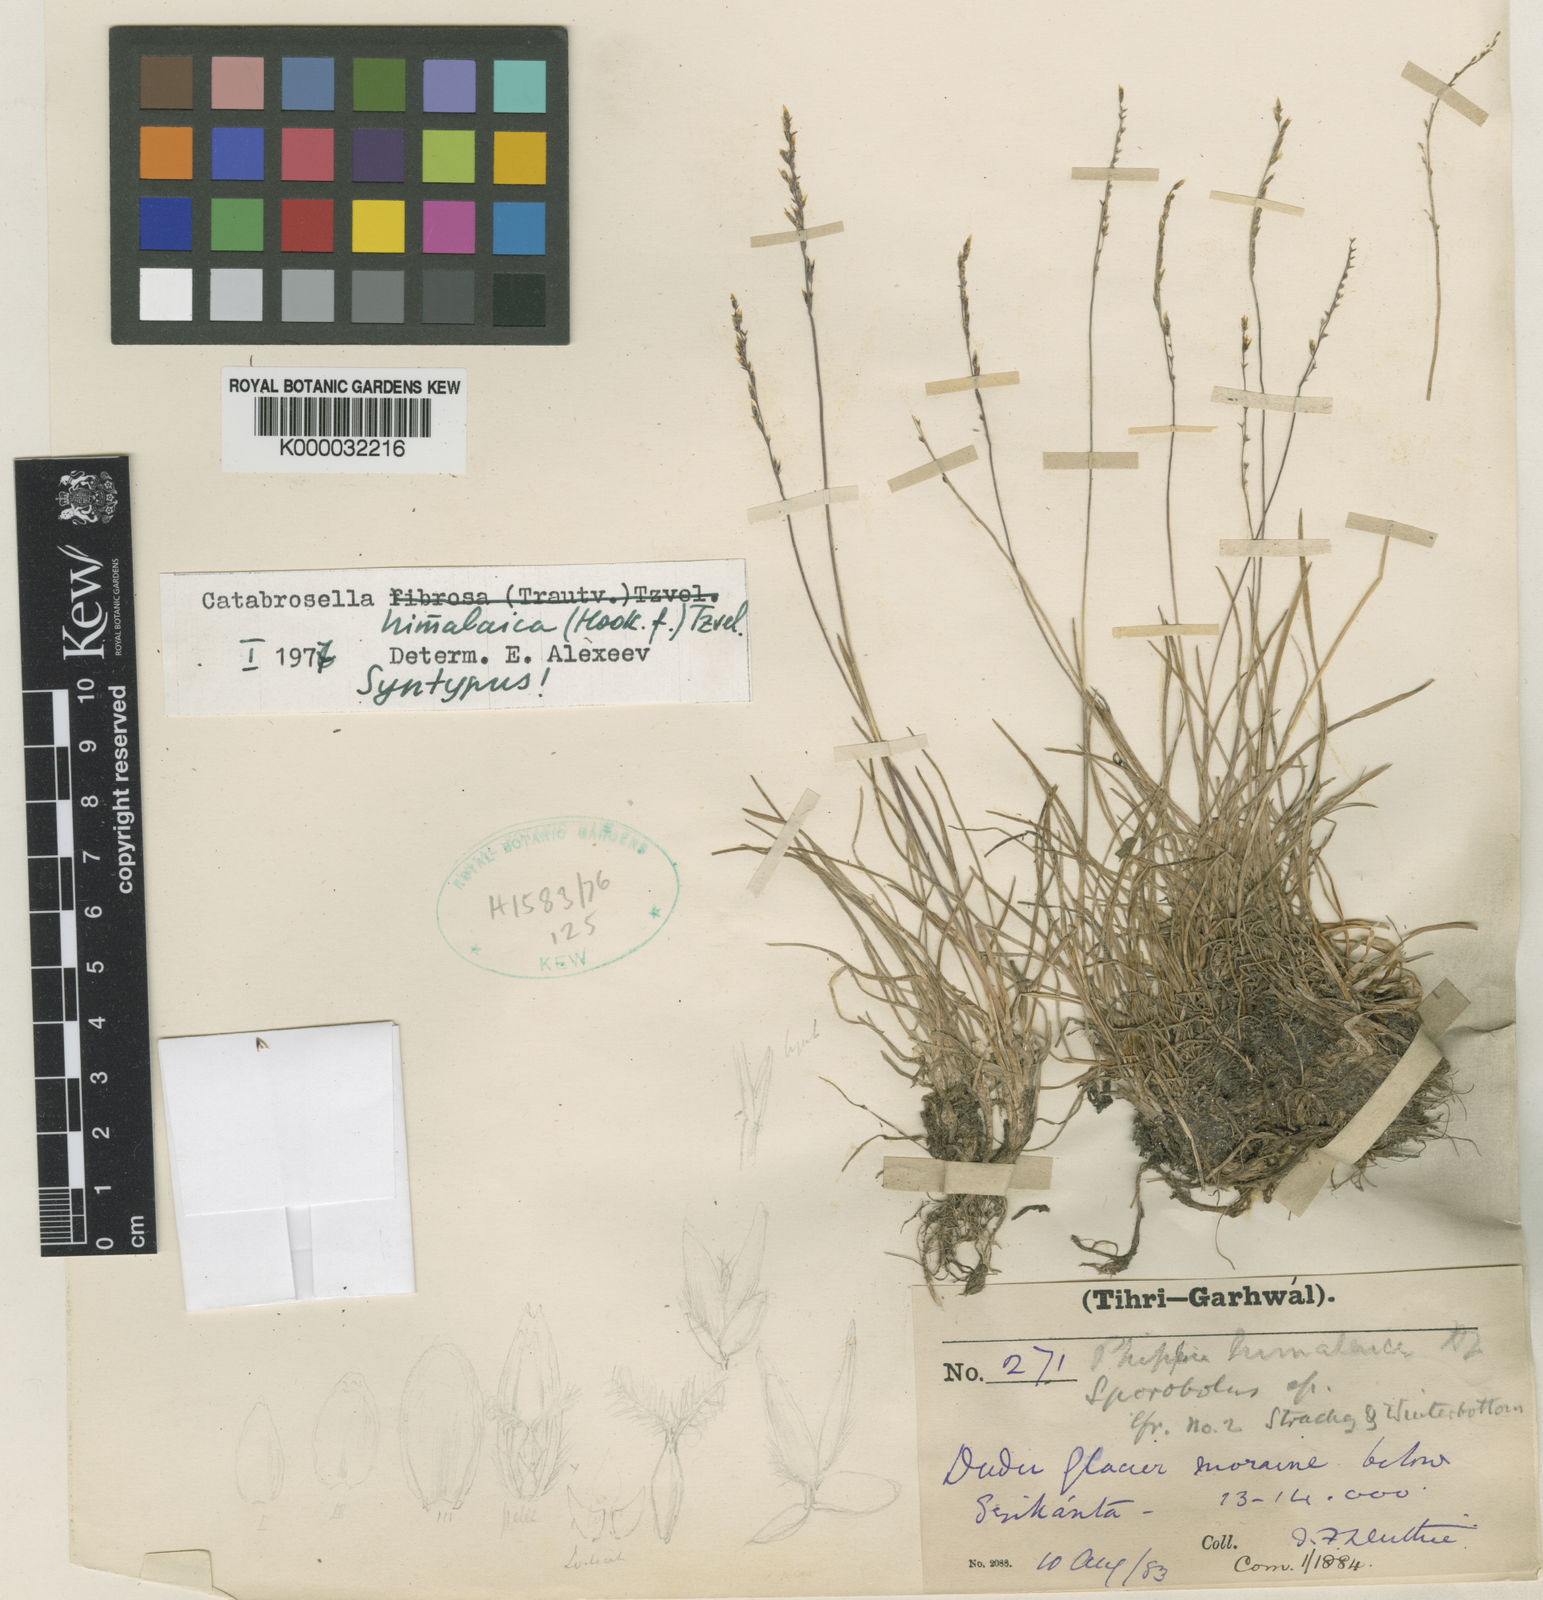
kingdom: Plantae
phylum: Tracheophyta
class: Liliopsida
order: Poales
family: Poaceae
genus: Catabrosella
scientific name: Catabrosella himalaica
